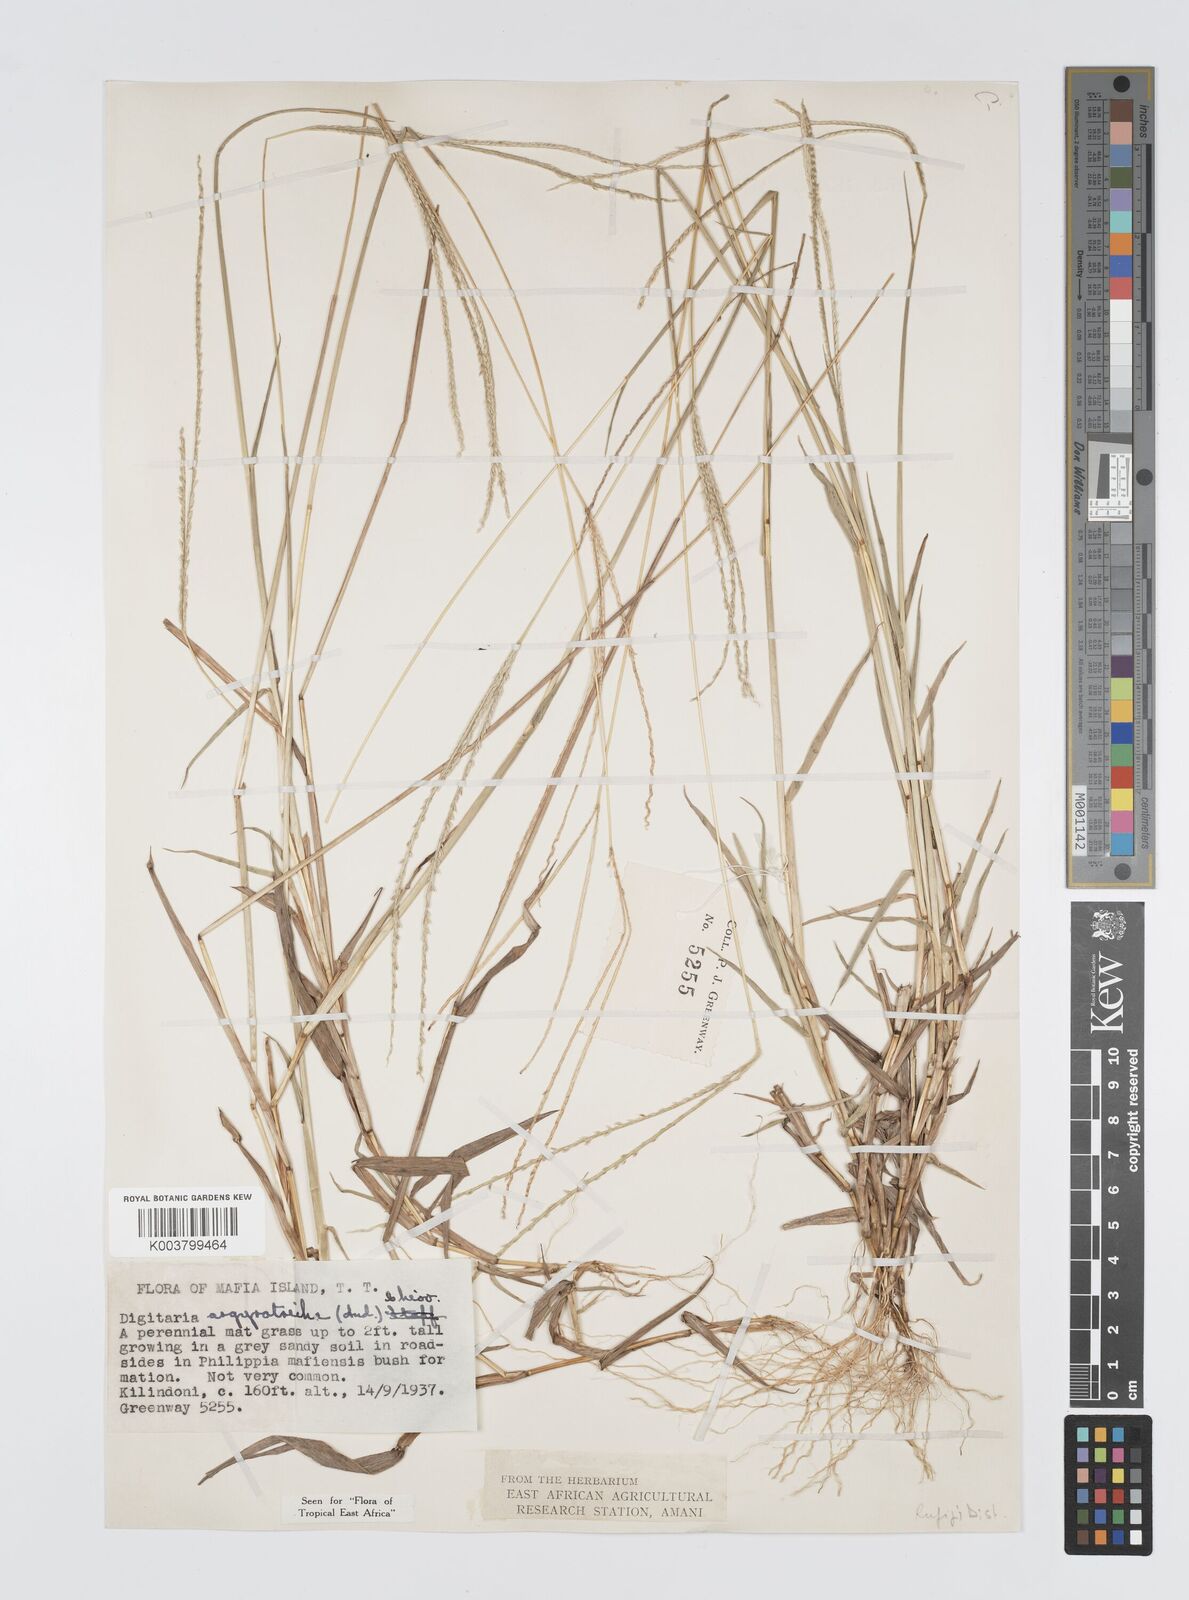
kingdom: Plantae
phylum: Tracheophyta
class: Liliopsida
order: Poales
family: Poaceae
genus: Digitaria
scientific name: Digitaria argyrotricha
